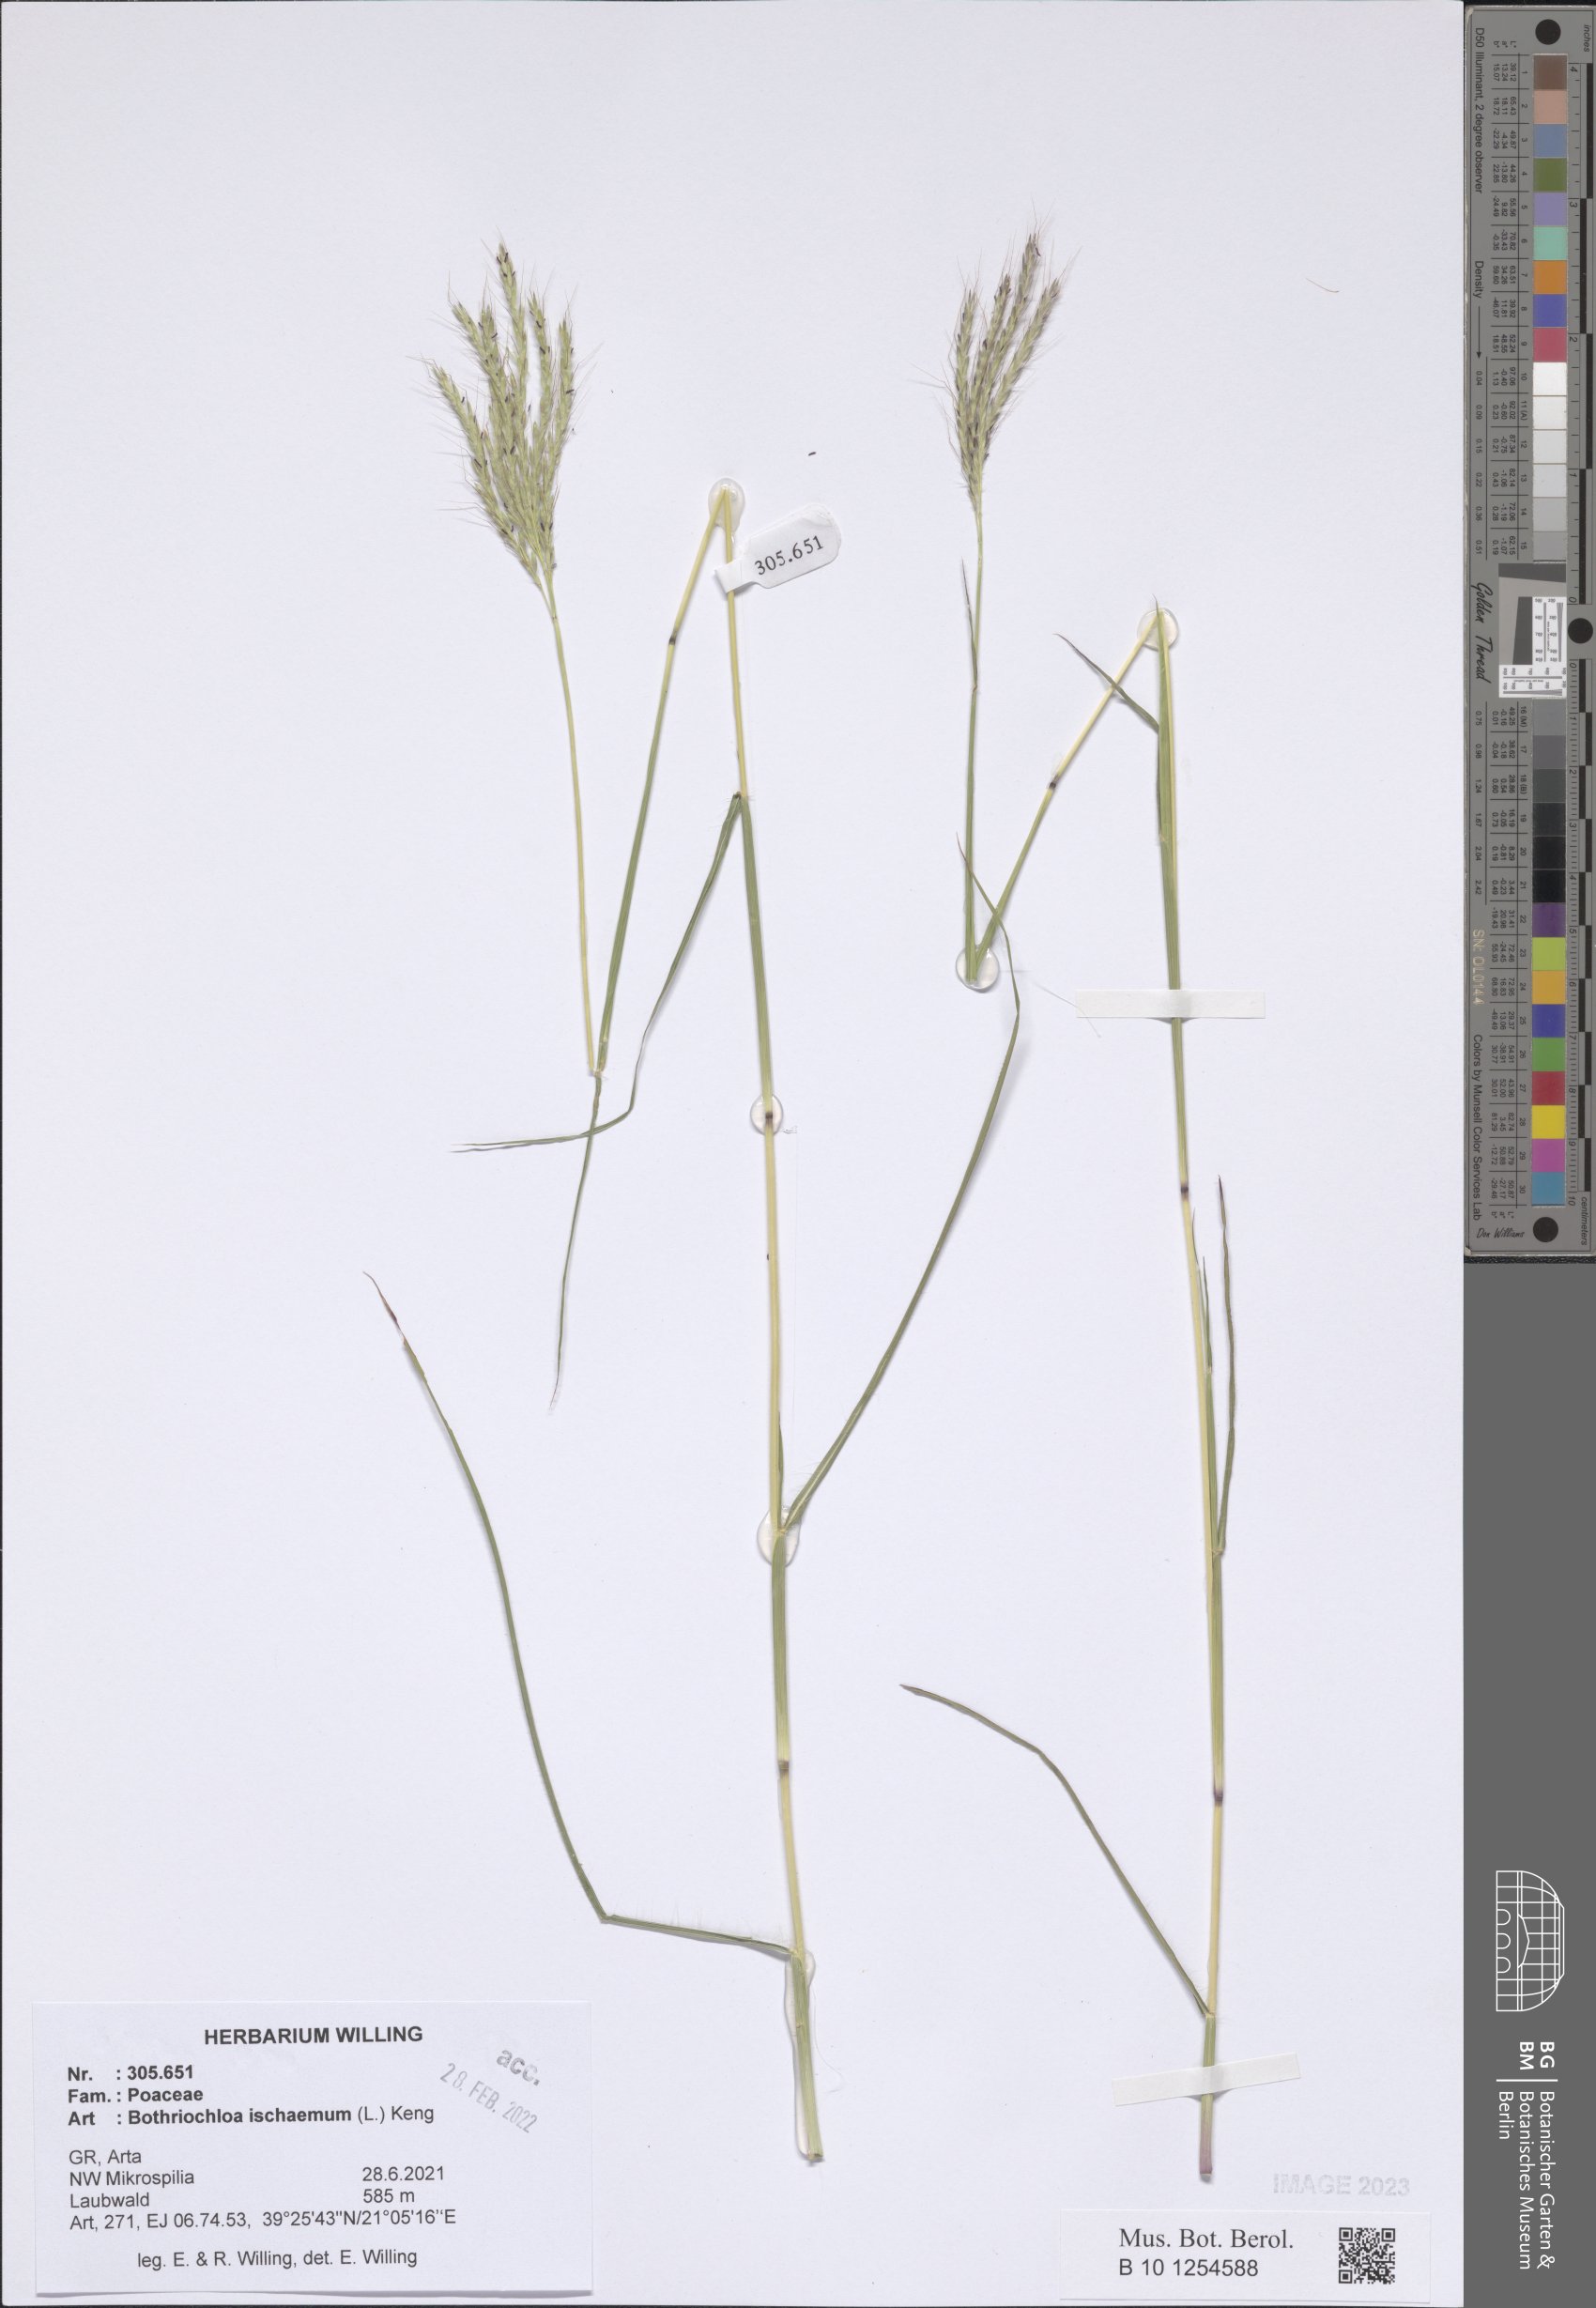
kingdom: Plantae
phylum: Tracheophyta
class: Liliopsida
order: Poales
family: Poaceae
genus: Bothriochloa
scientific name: Bothriochloa ischaemum
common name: Yellow bluestem
